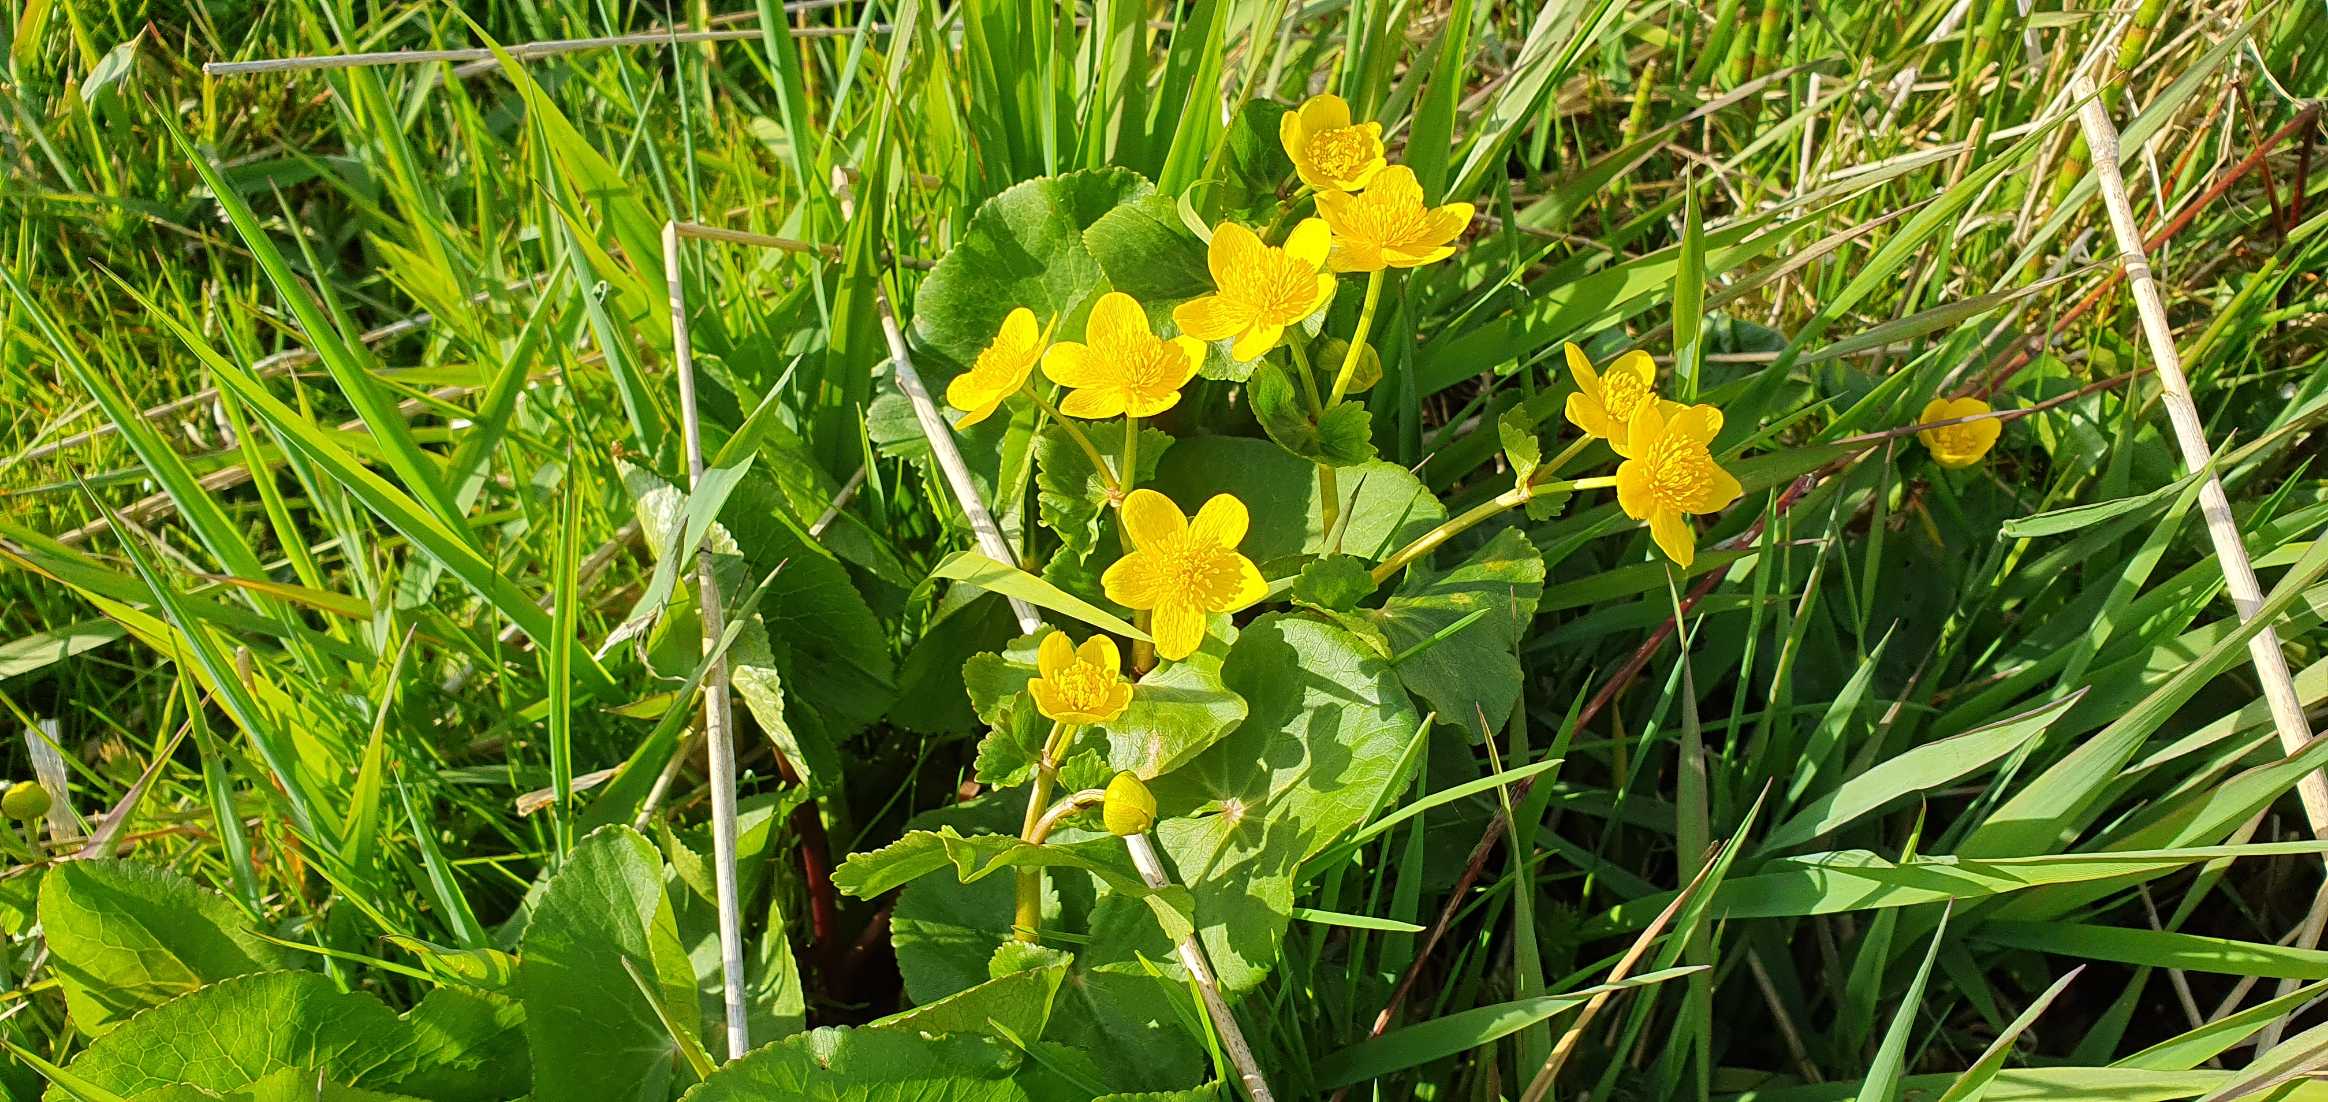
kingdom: Plantae
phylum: Tracheophyta
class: Magnoliopsida
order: Ranunculales
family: Ranunculaceae
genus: Caltha
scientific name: Caltha palustris
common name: Eng-kabbeleje
